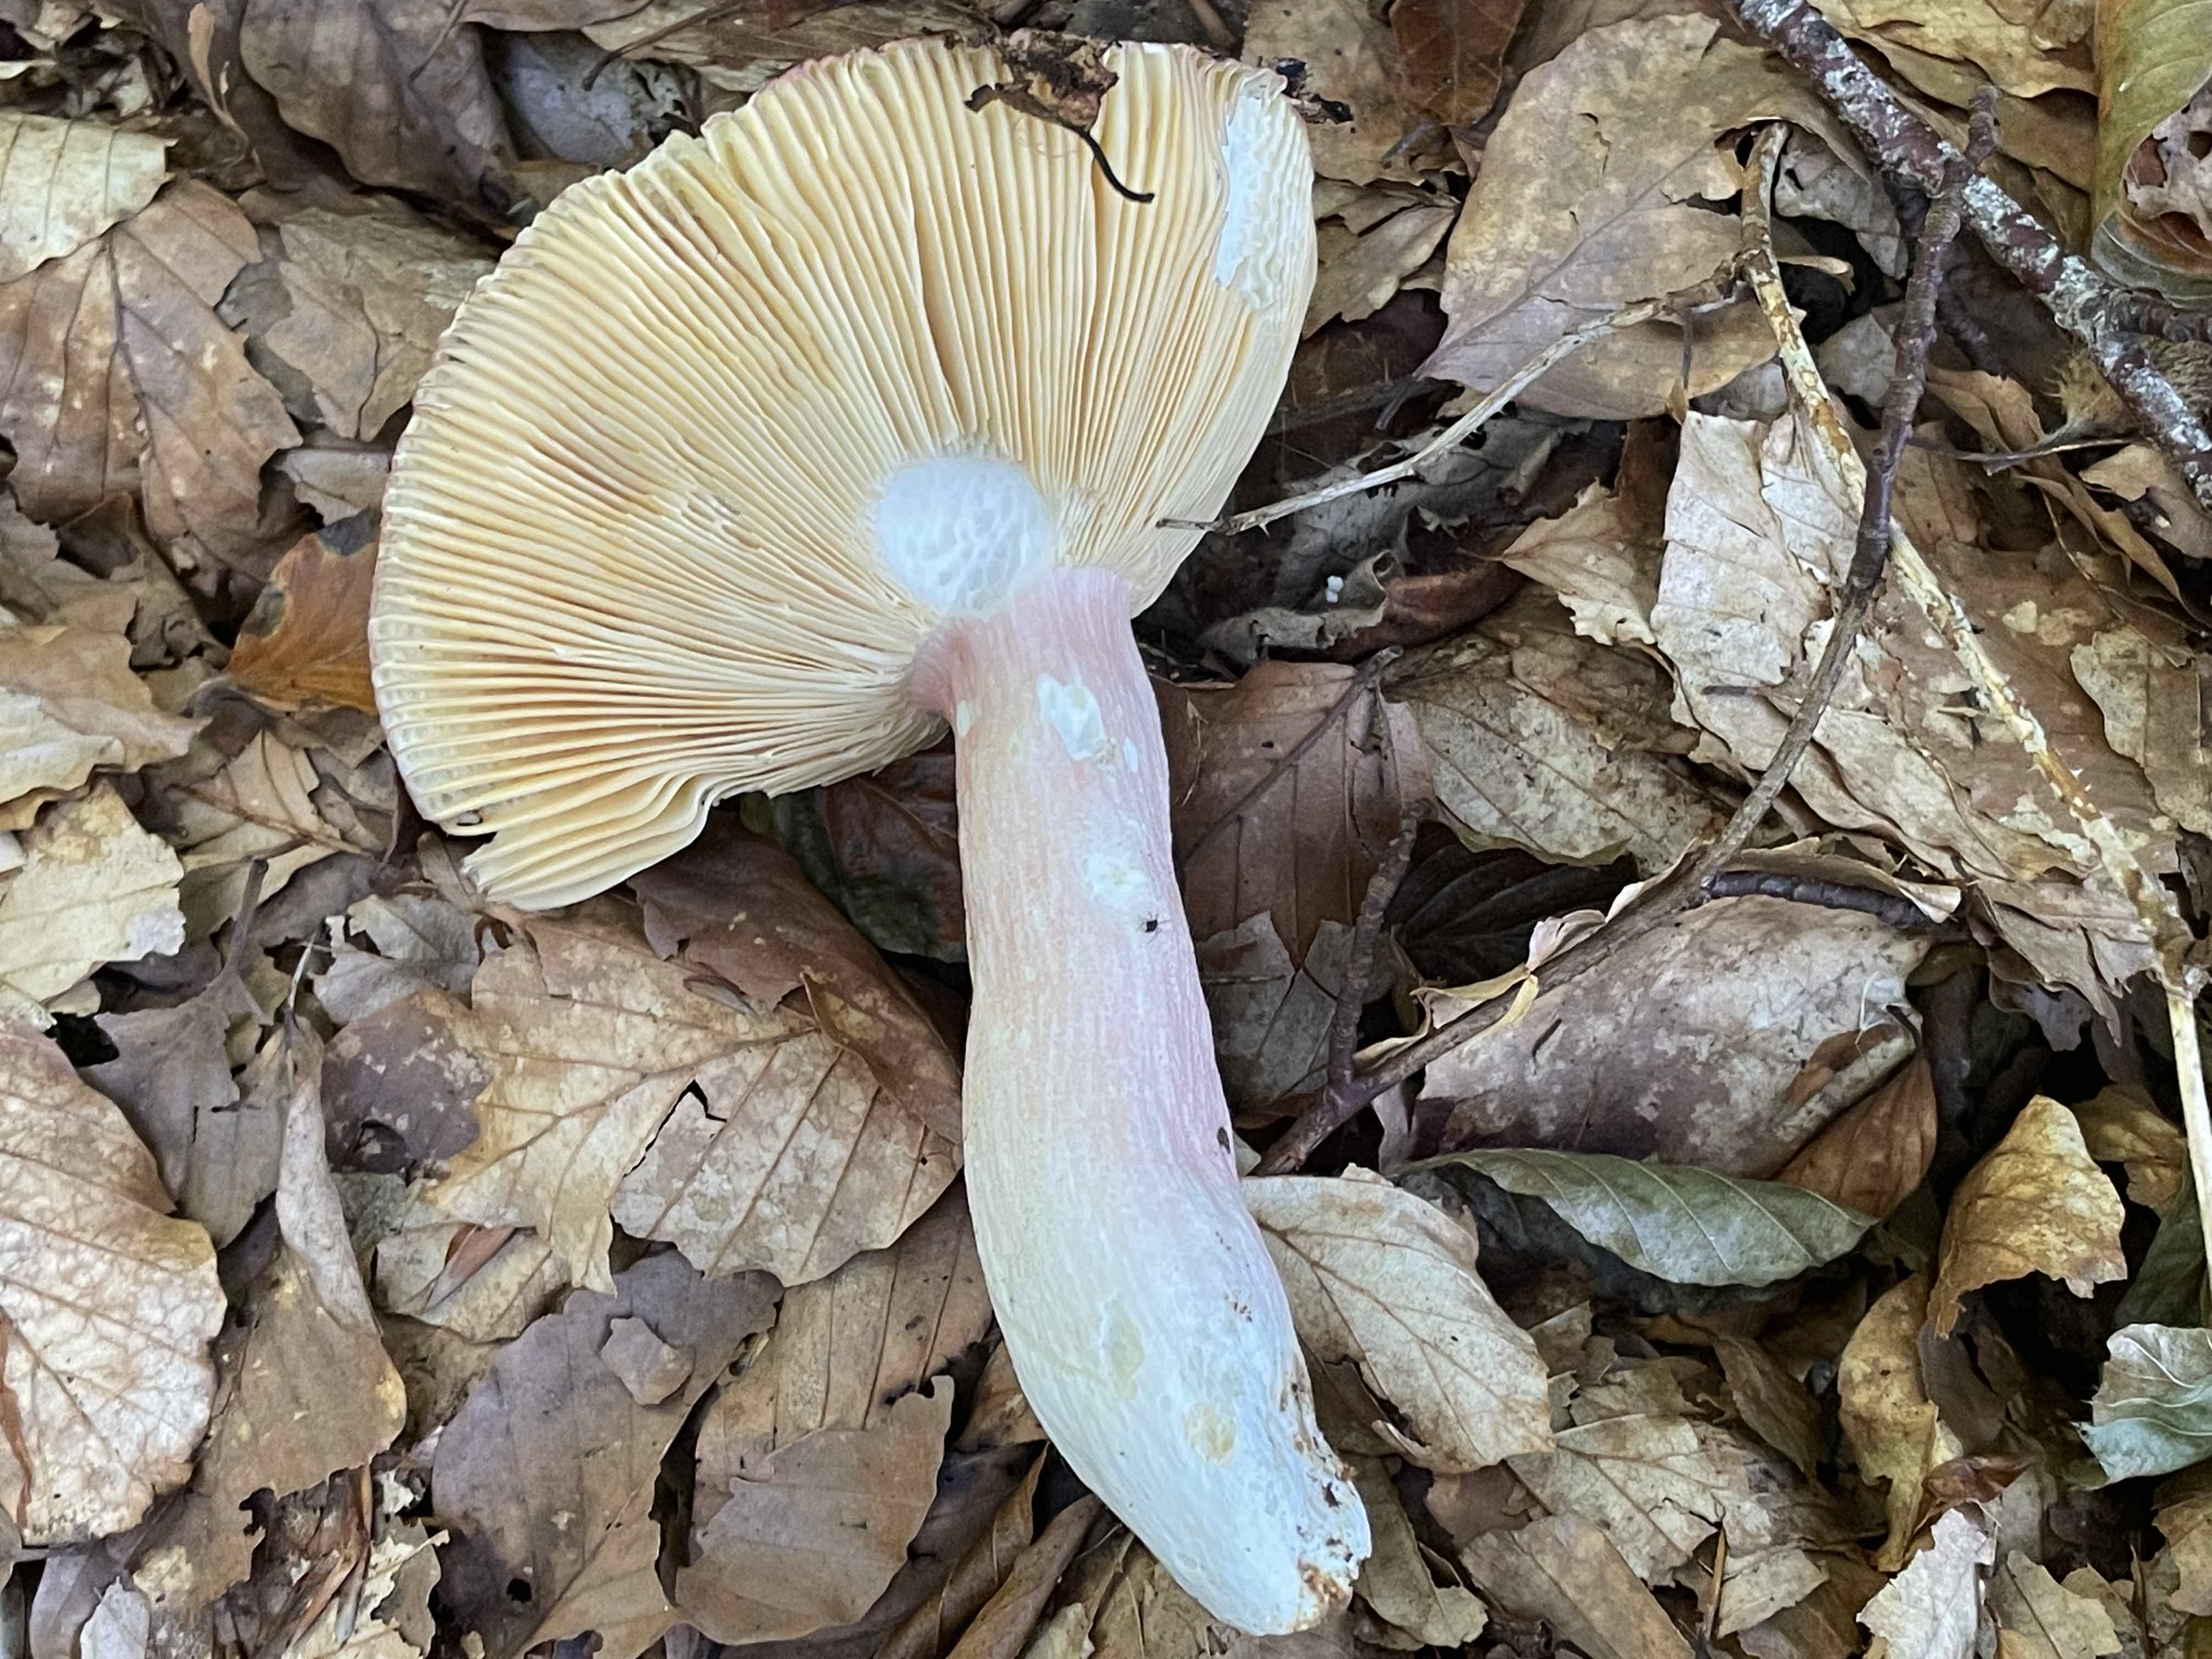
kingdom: Fungi
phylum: Basidiomycota
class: Agaricomycetes
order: Russulales
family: Russulaceae
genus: Russula
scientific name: Russula olivacea
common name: stor skørhat
